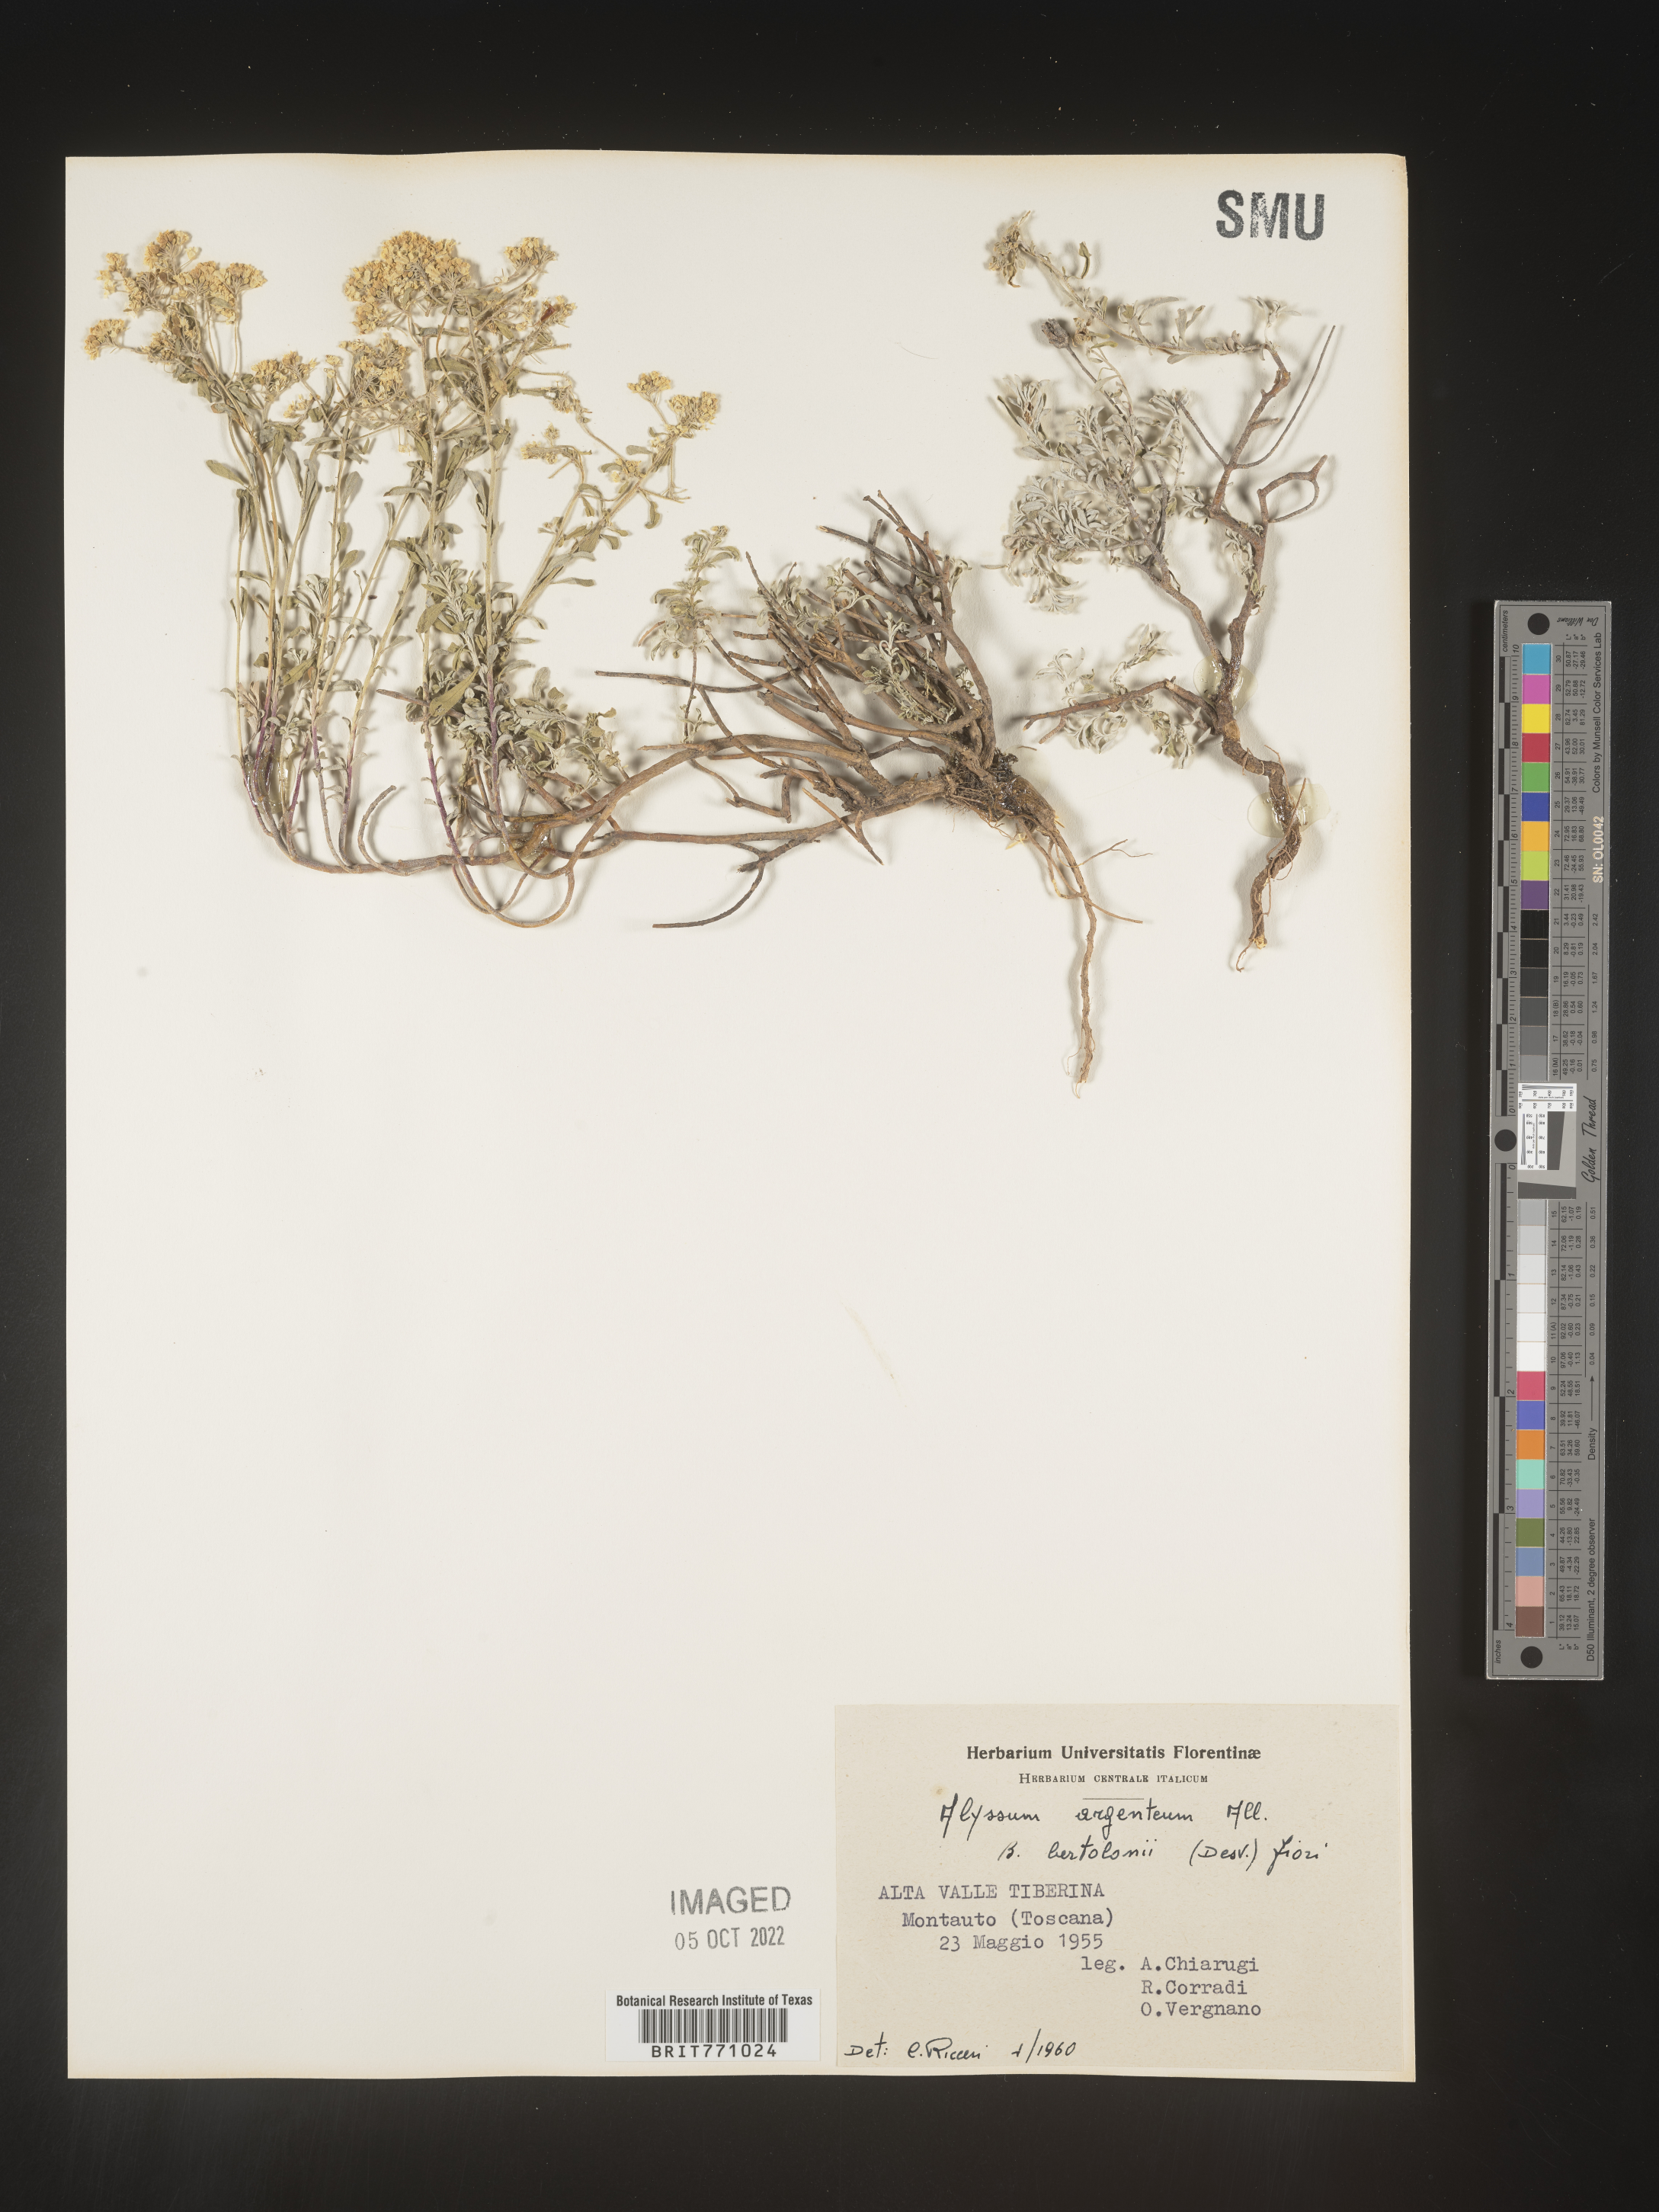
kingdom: Plantae
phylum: Tracheophyta
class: Magnoliopsida
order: Brassicales
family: Brassicaceae
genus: Alyssum
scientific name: Alyssum
